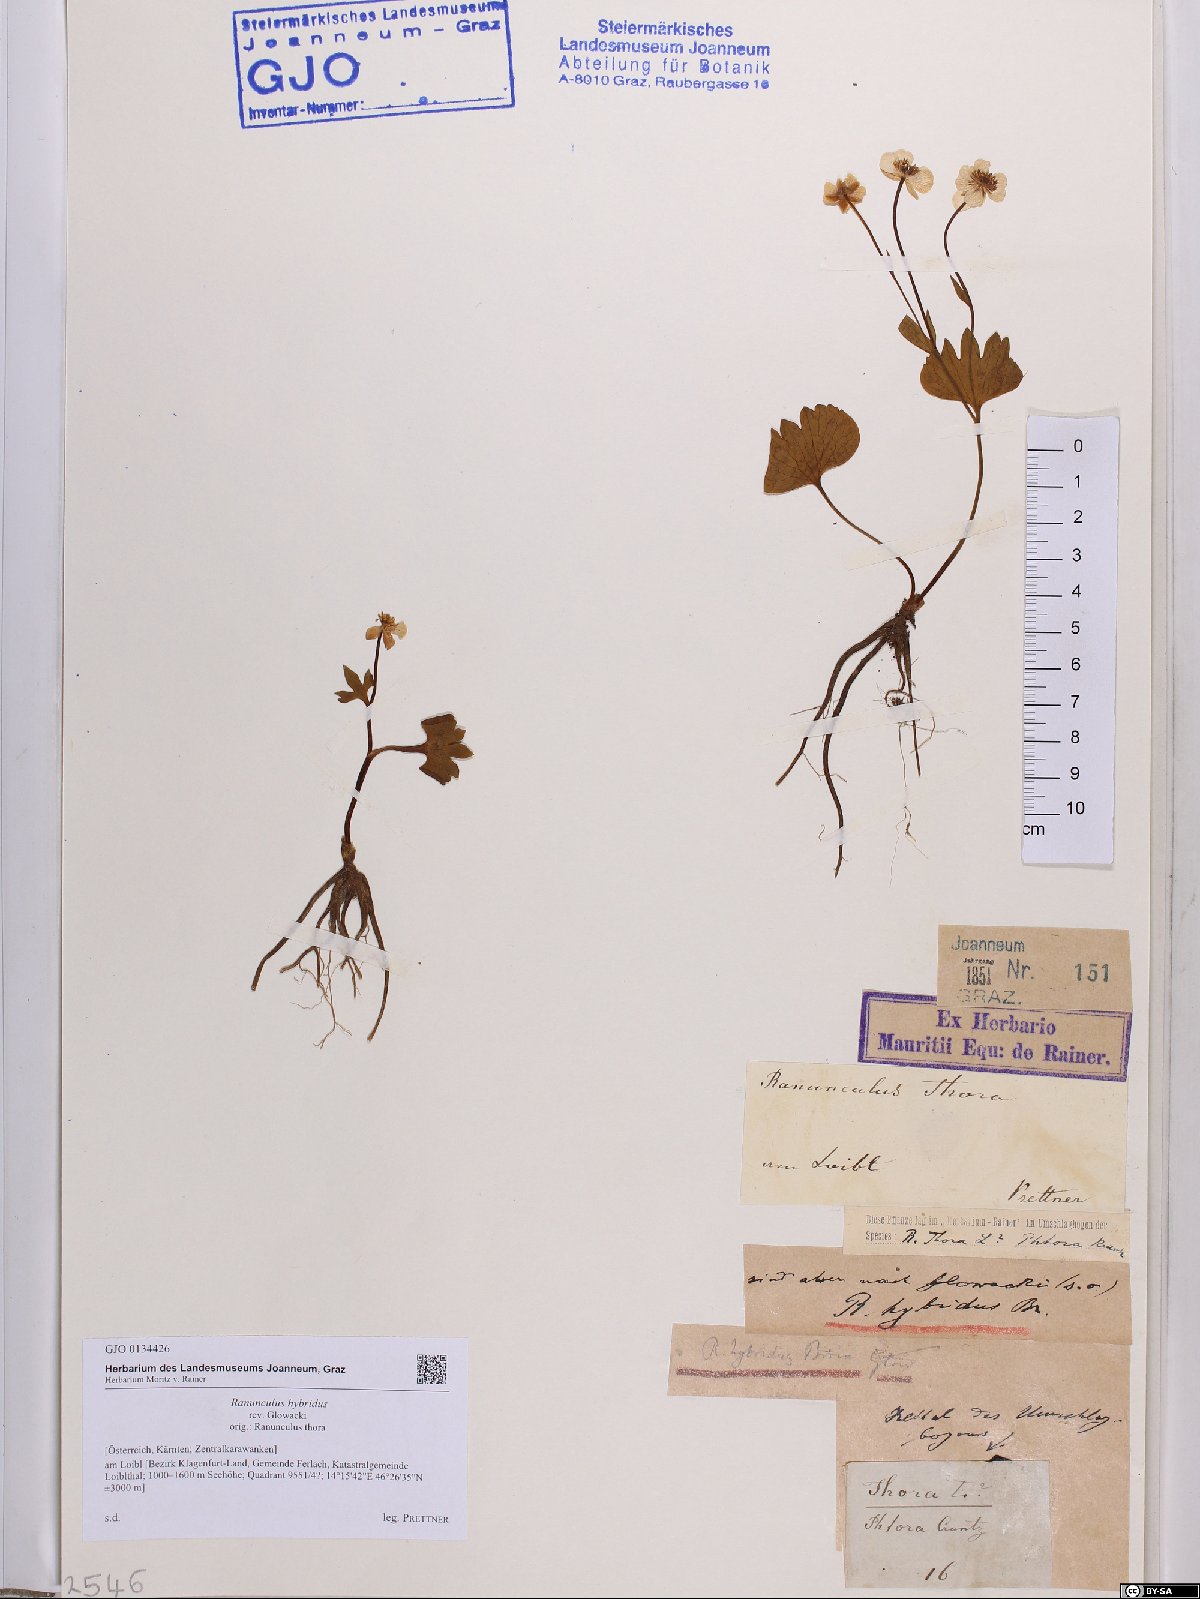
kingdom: Plantae
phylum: Tracheophyta
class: Magnoliopsida
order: Ranunculales
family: Ranunculaceae
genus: Ranunculus
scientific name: Ranunculus hybridus
